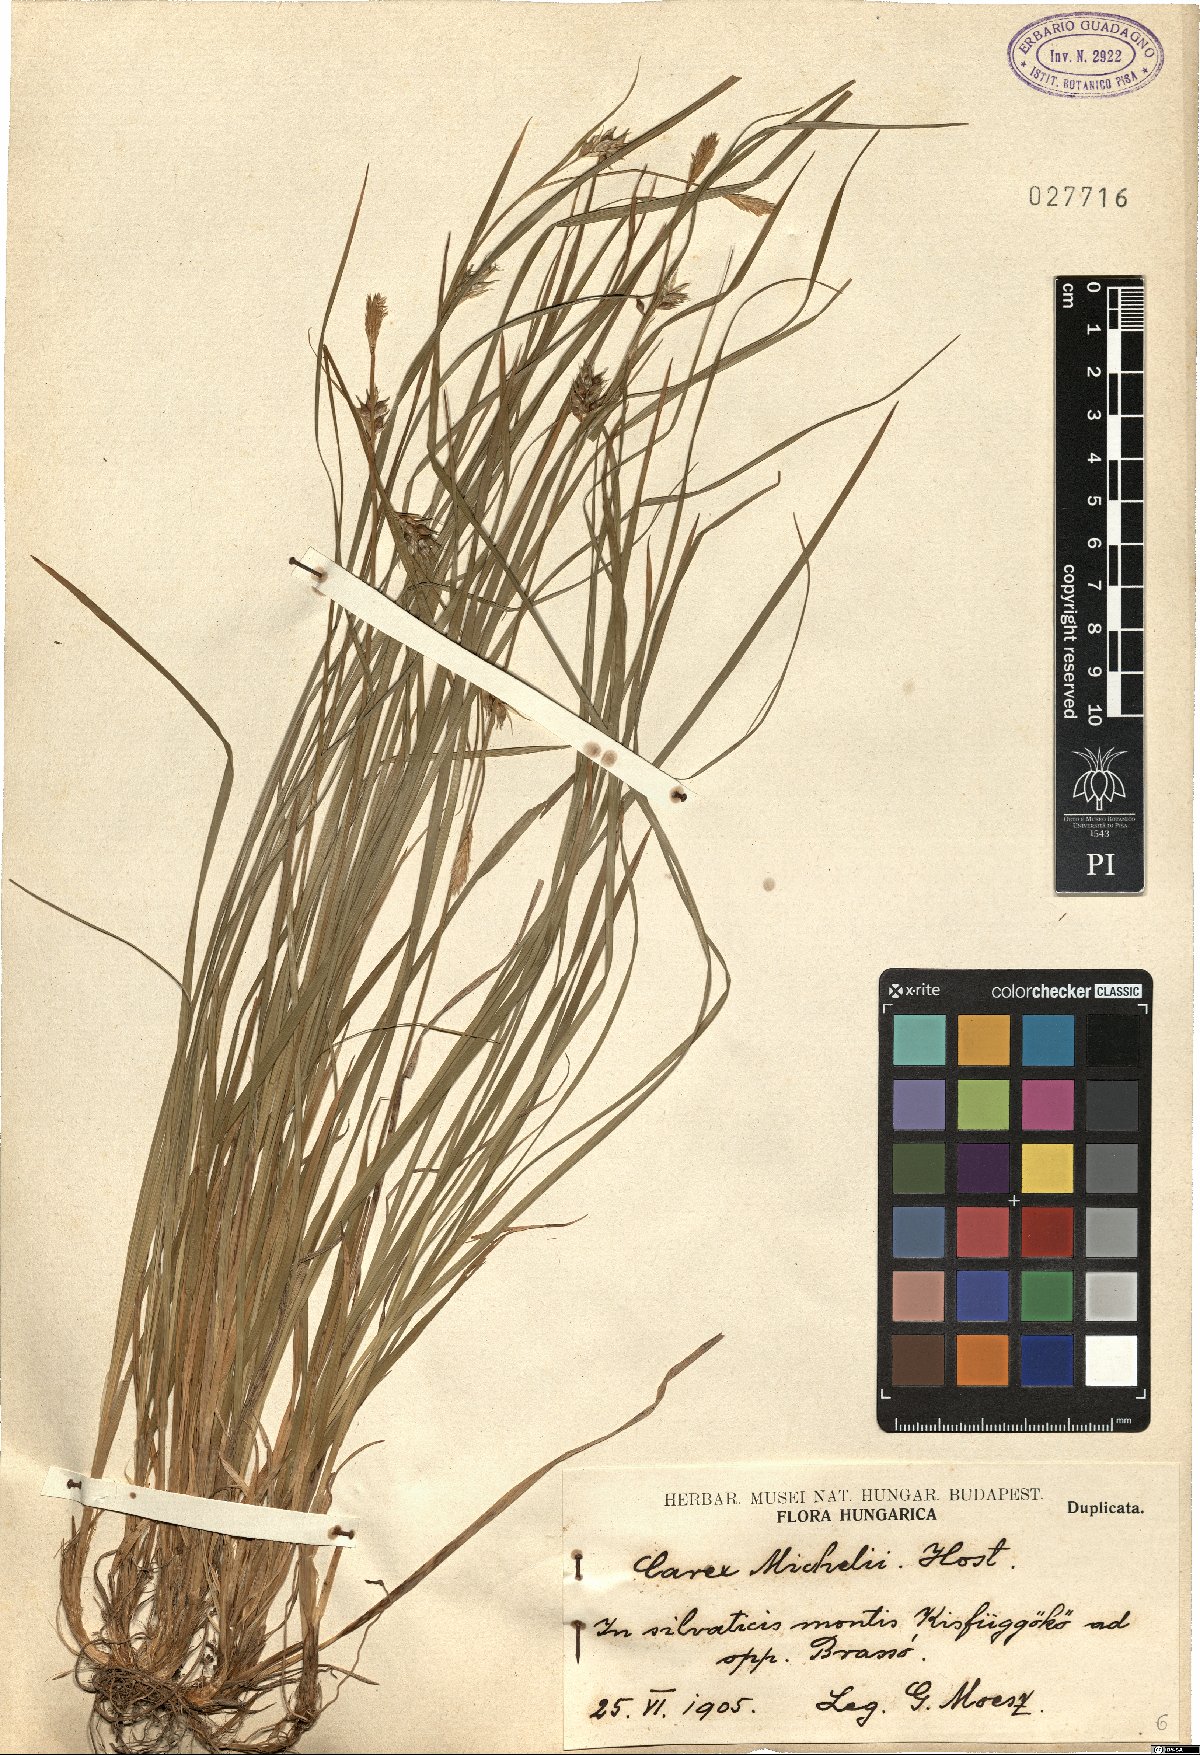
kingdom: Plantae
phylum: Tracheophyta
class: Liliopsida
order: Poales
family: Cyperaceae
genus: Carex
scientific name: Carex michelii
